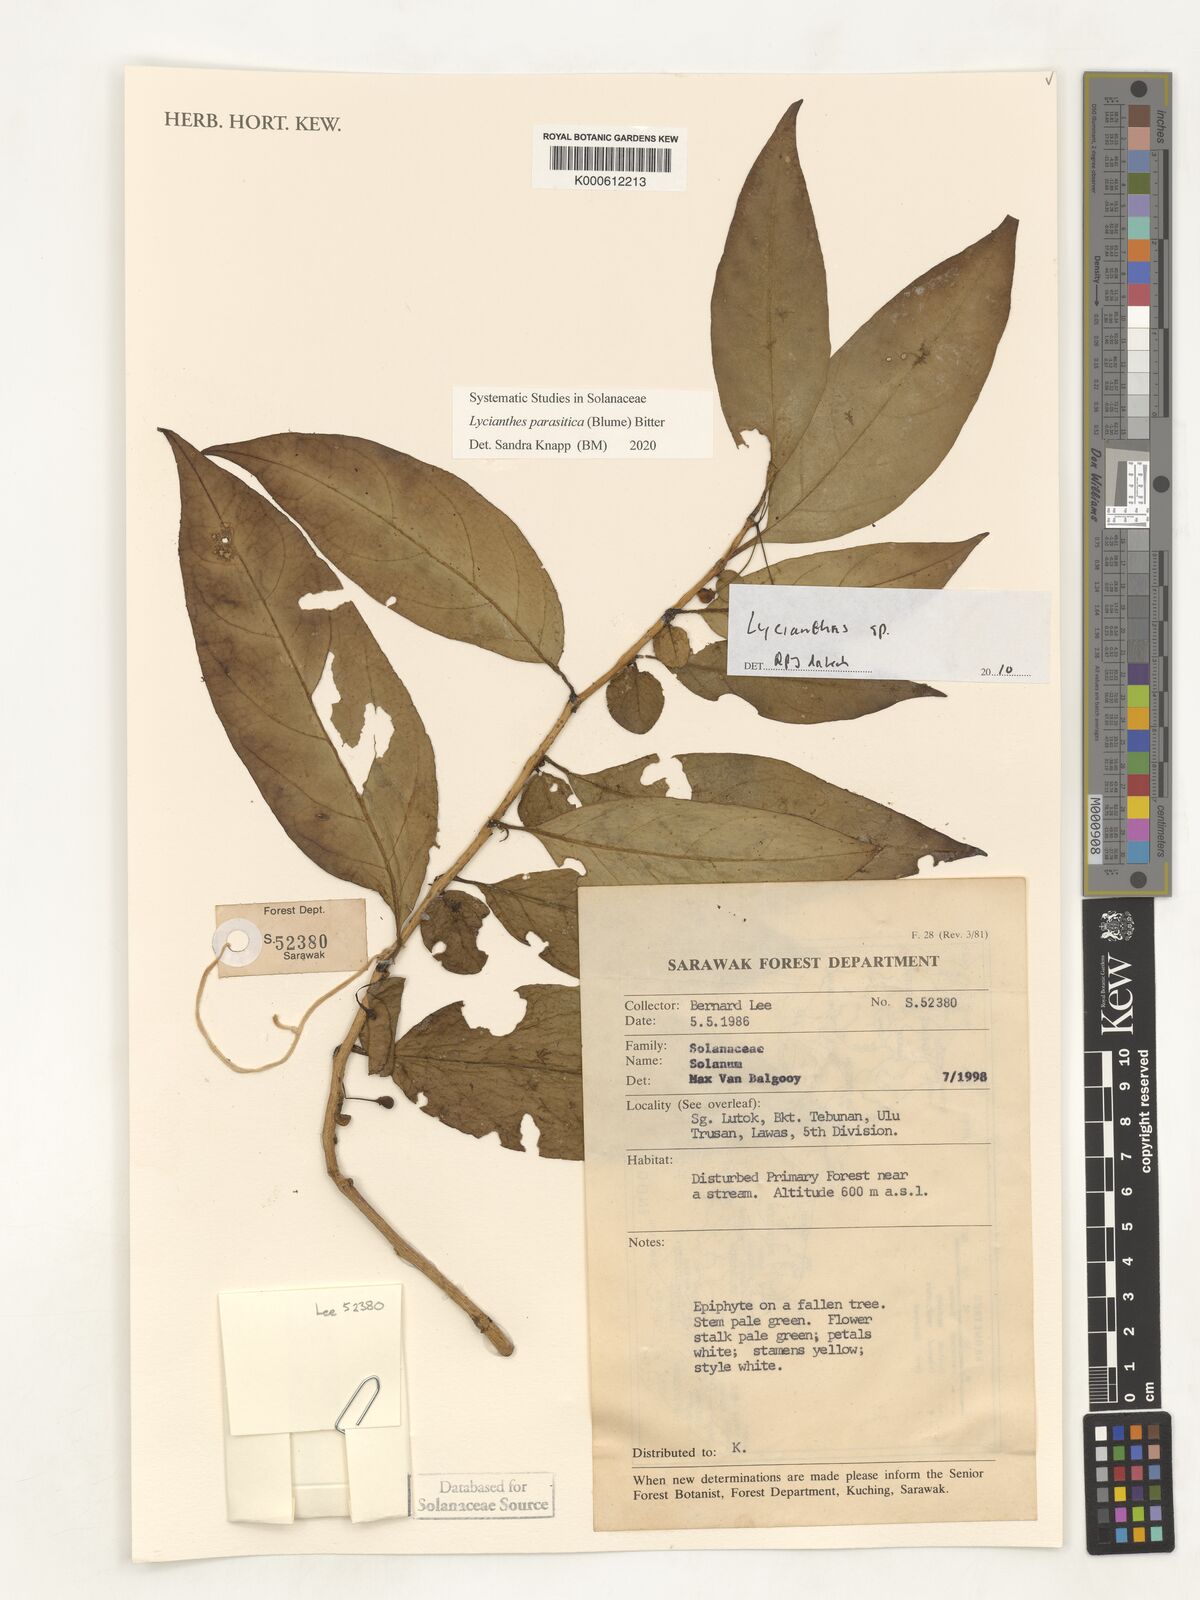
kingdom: Plantae
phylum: Tracheophyta
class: Magnoliopsida
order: Solanales
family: Solanaceae
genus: Lycianthes
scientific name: Lycianthes
